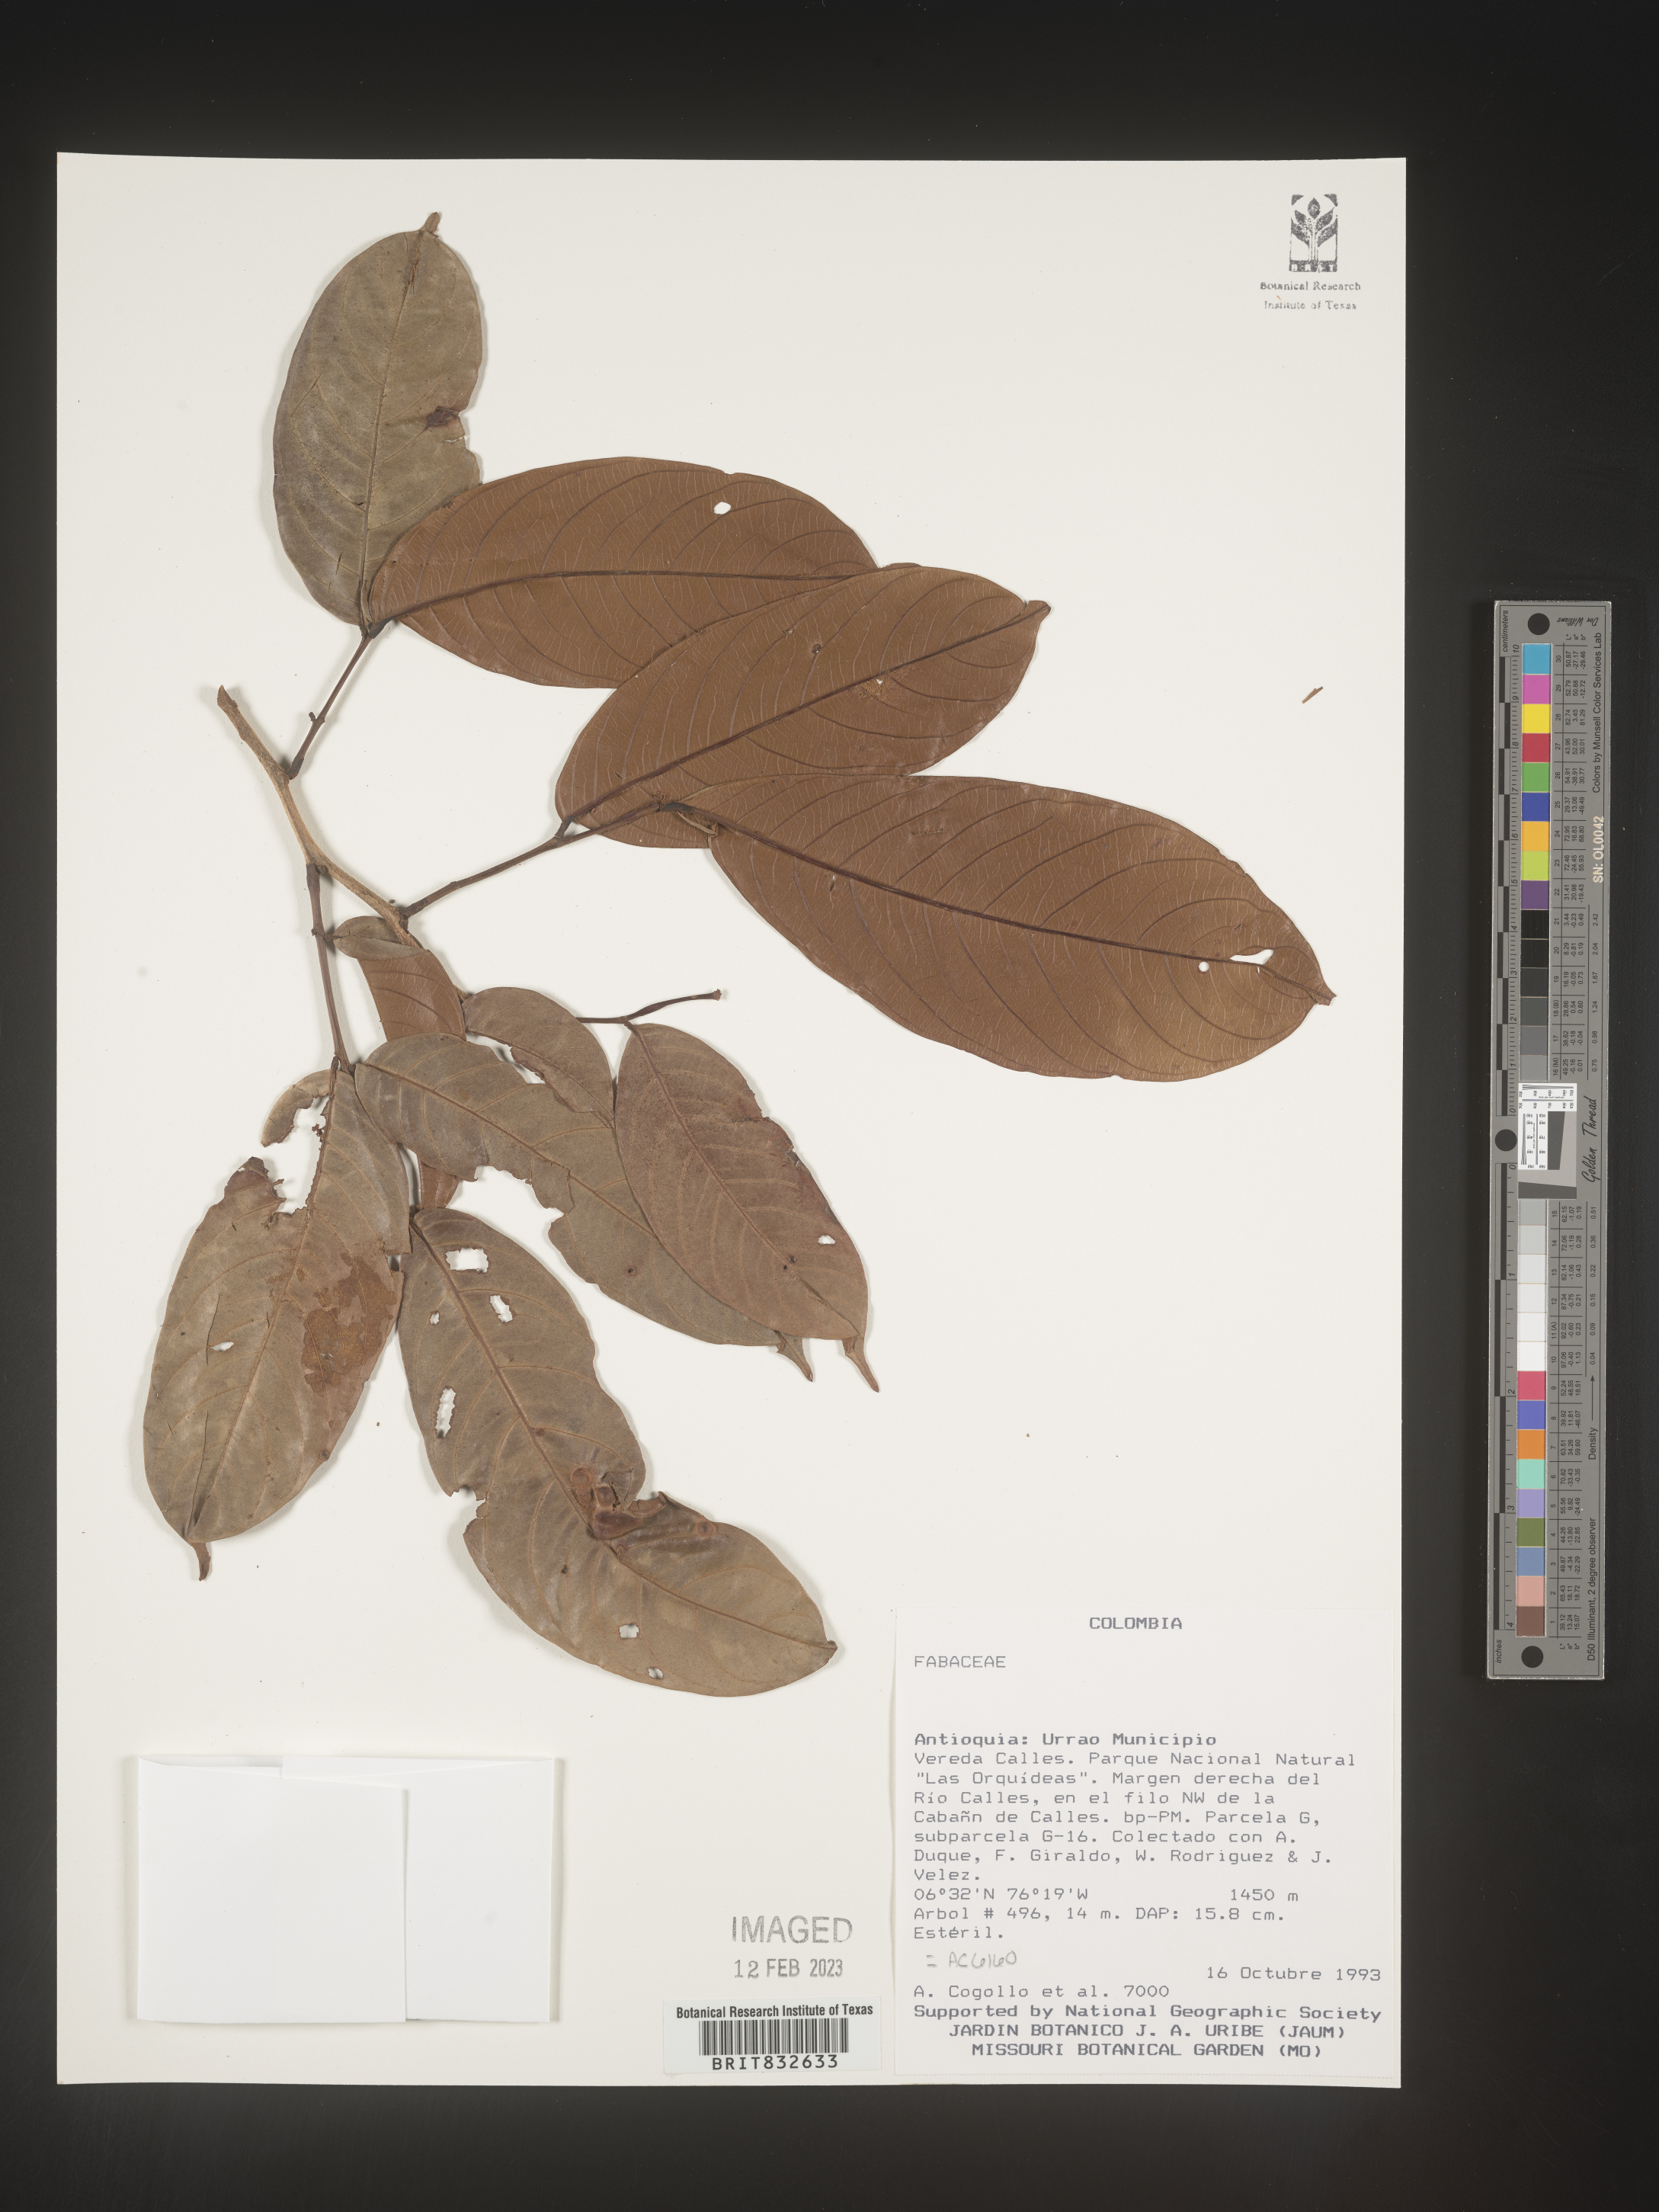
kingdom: Plantae
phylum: Tracheophyta
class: Magnoliopsida
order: Fabales
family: Fabaceae
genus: Swartzia
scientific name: Swartzia
